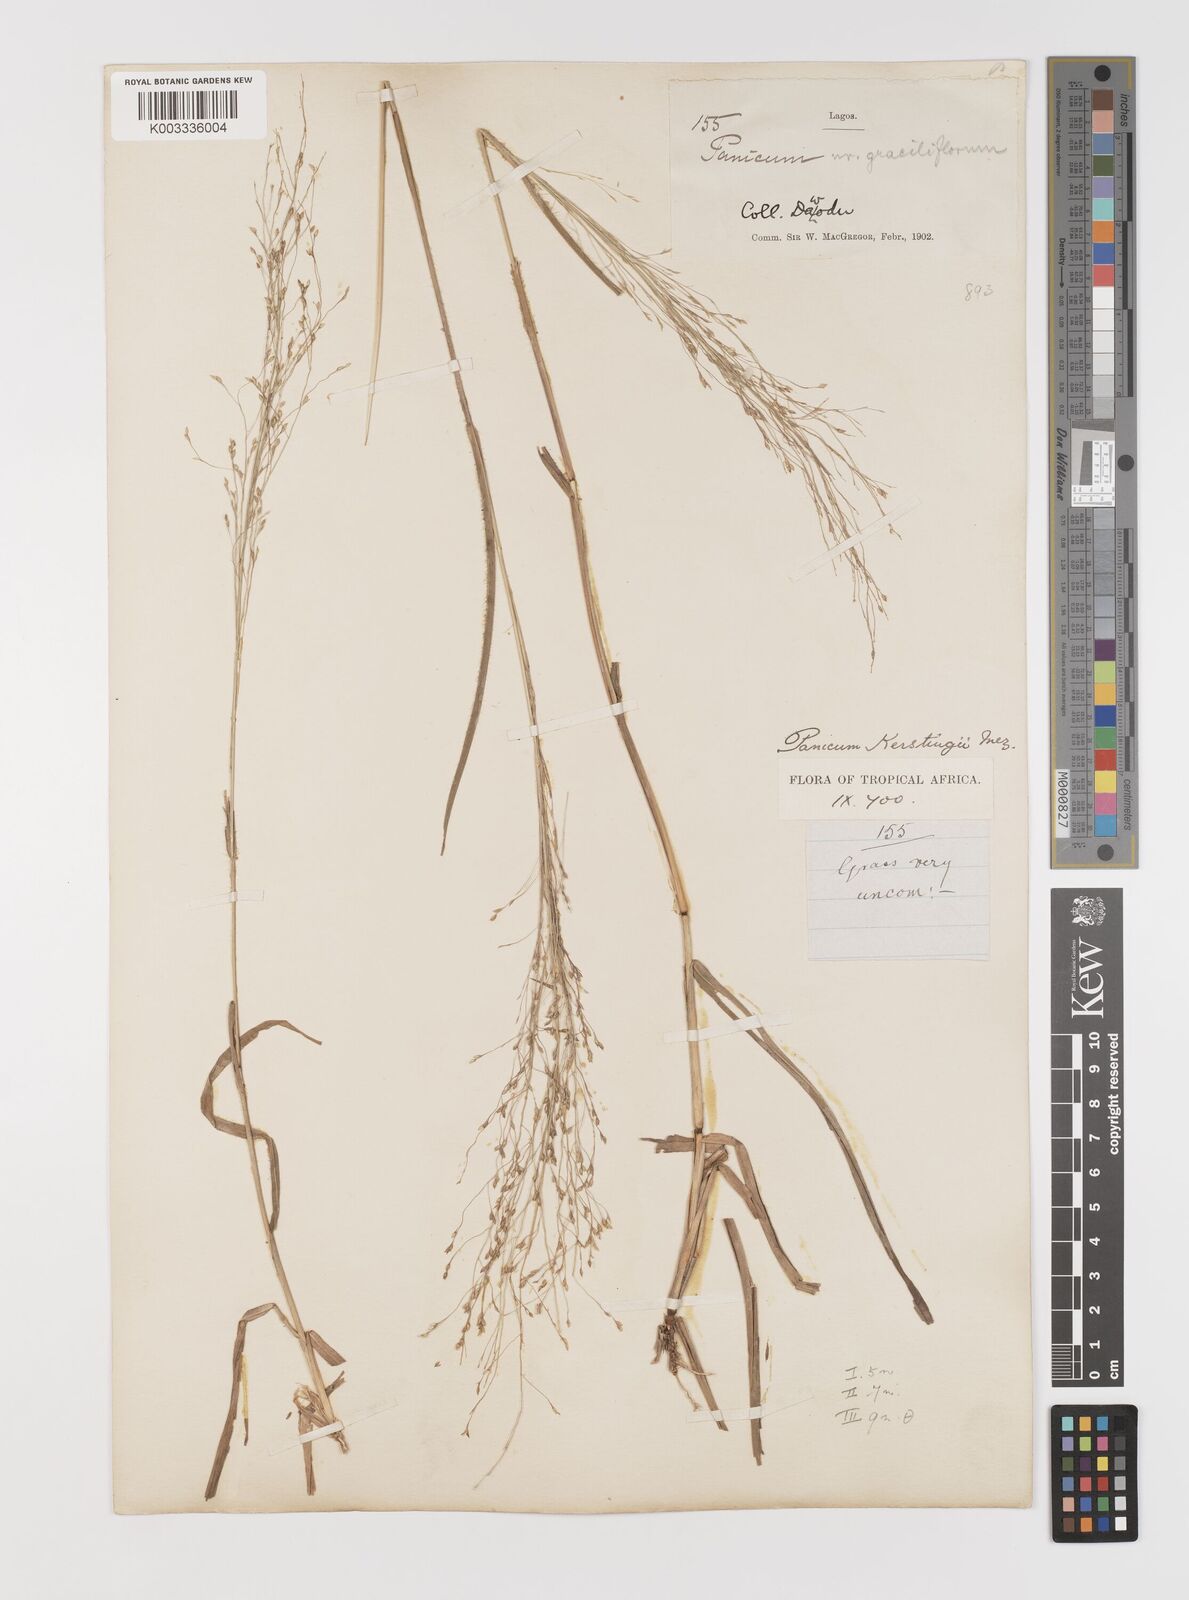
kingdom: Plantae
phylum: Tracheophyta
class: Liliopsida
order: Poales
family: Poaceae
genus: Panicum
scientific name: Panicum pansum
